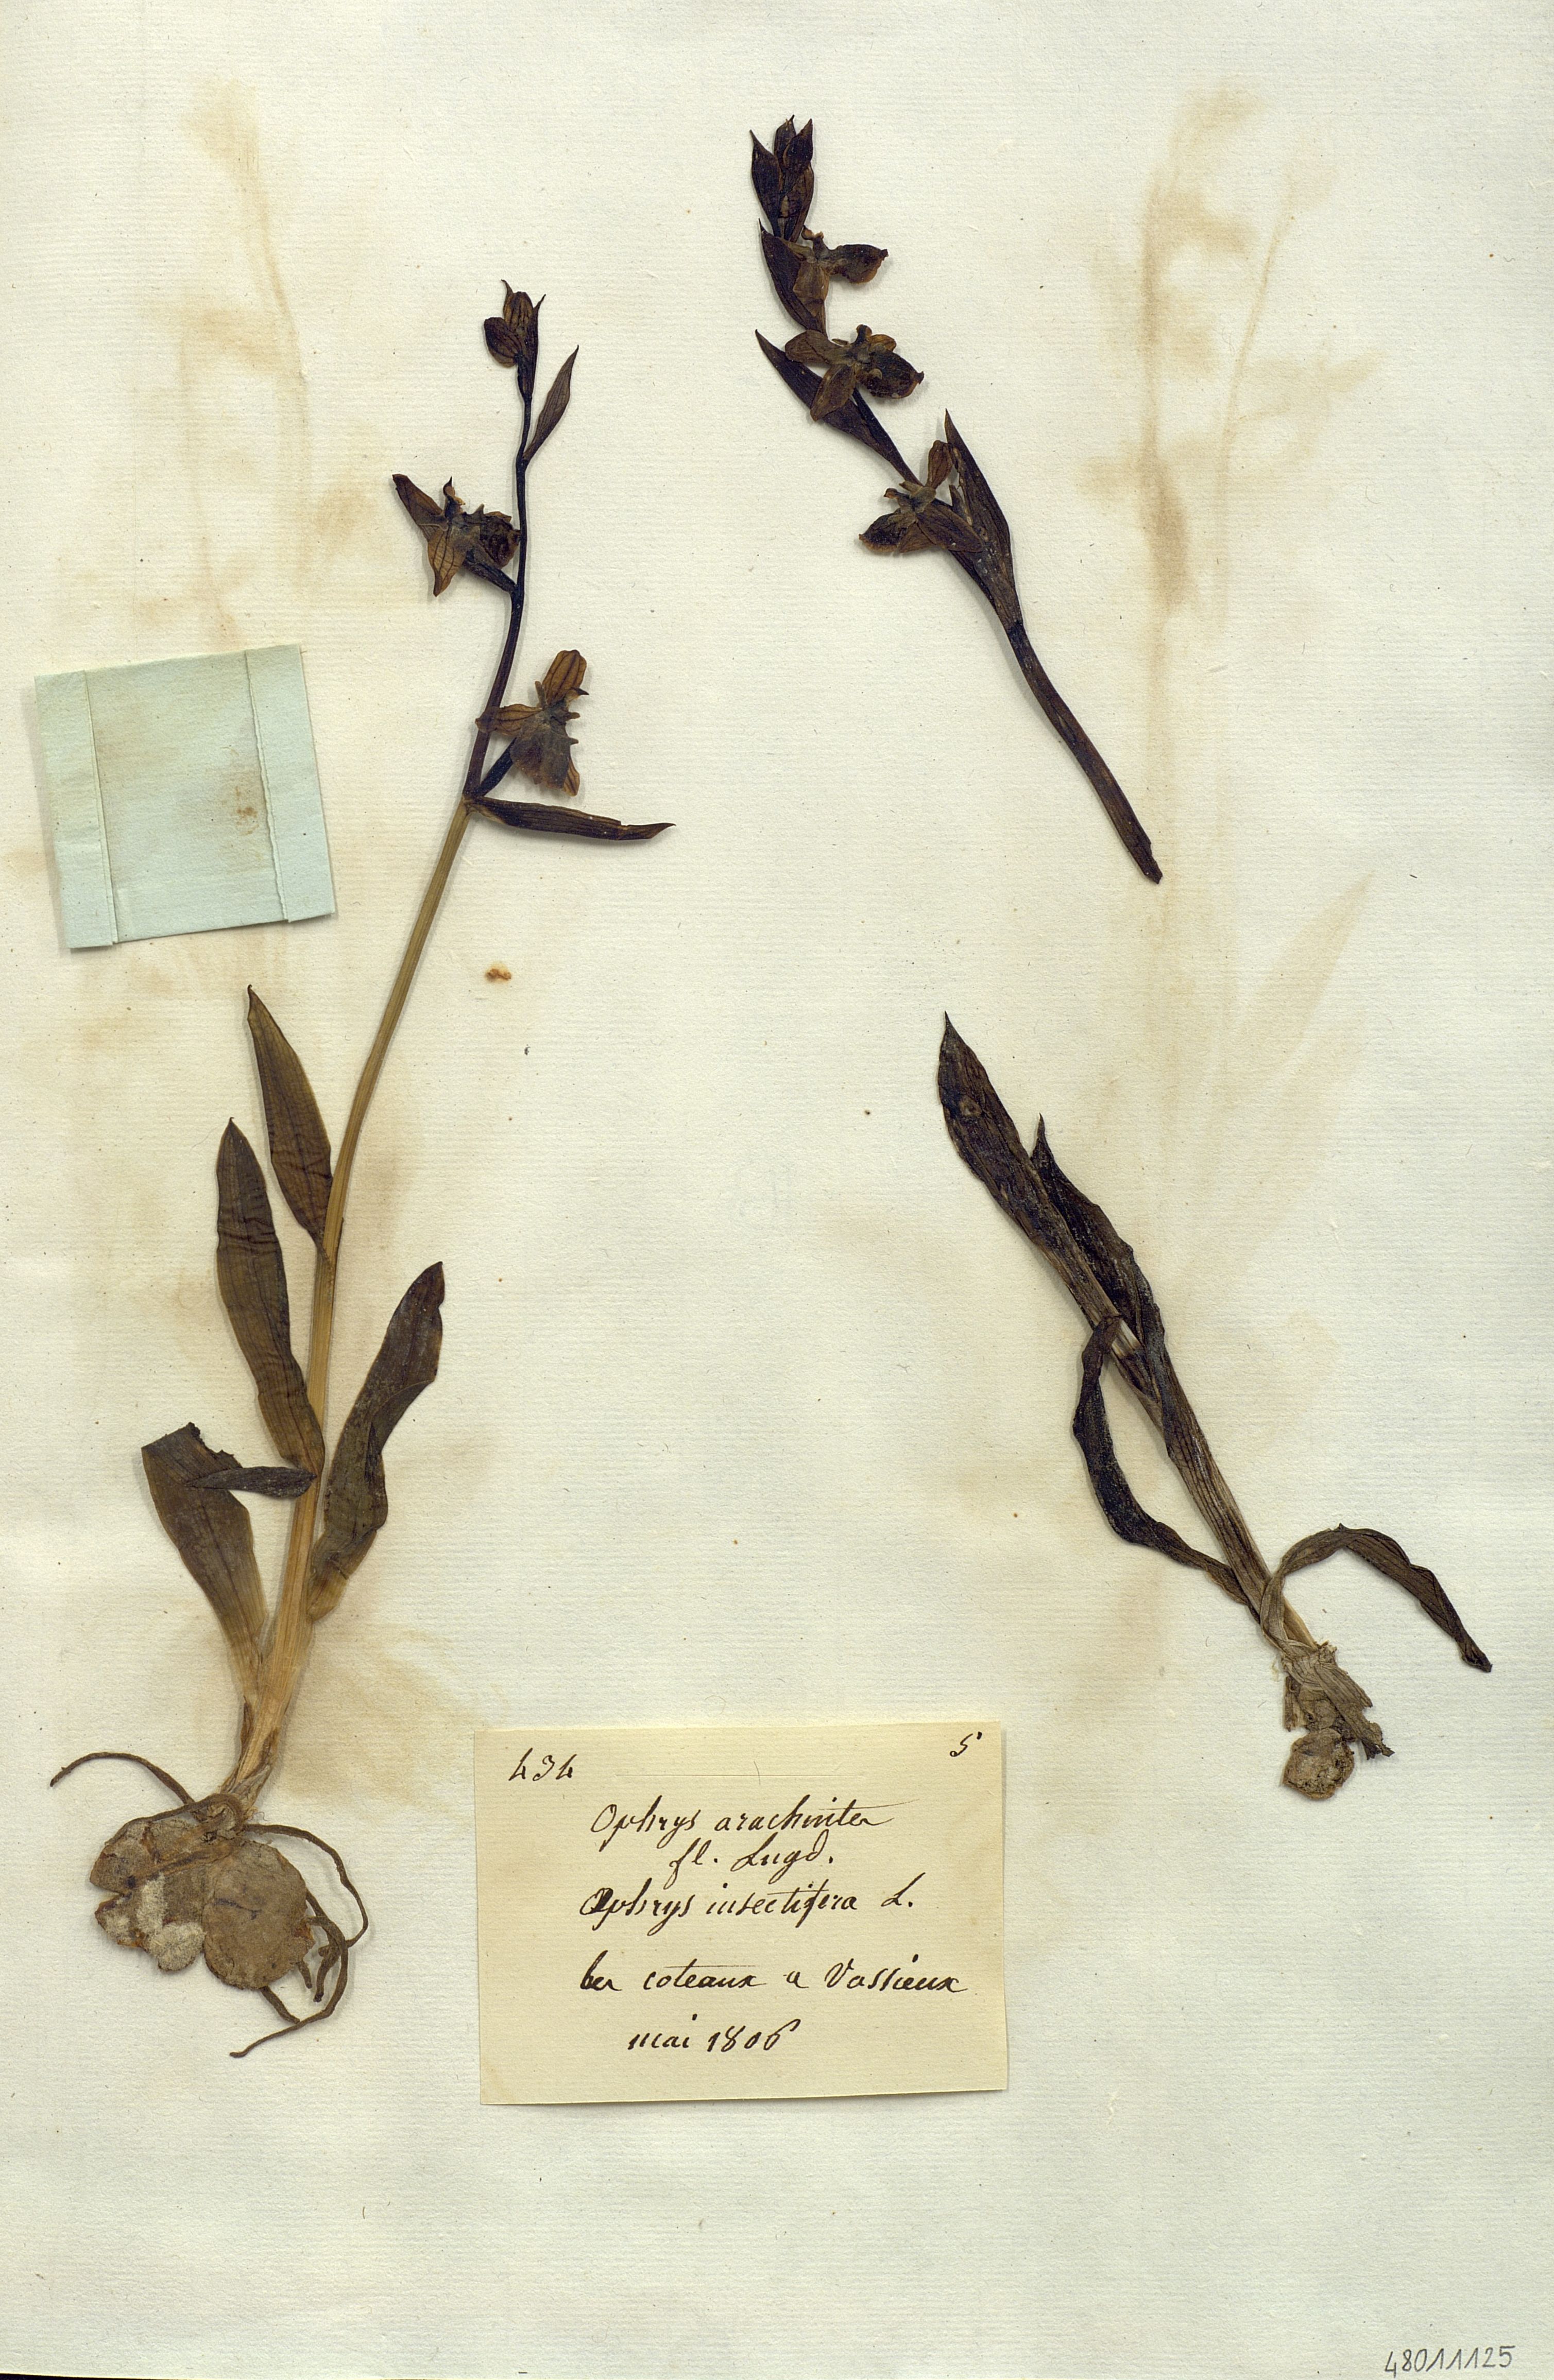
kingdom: Plantae
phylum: Tracheophyta
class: Liliopsida
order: Asparagales
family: Orchidaceae
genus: Ophrys
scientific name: Ophrys arachnites
